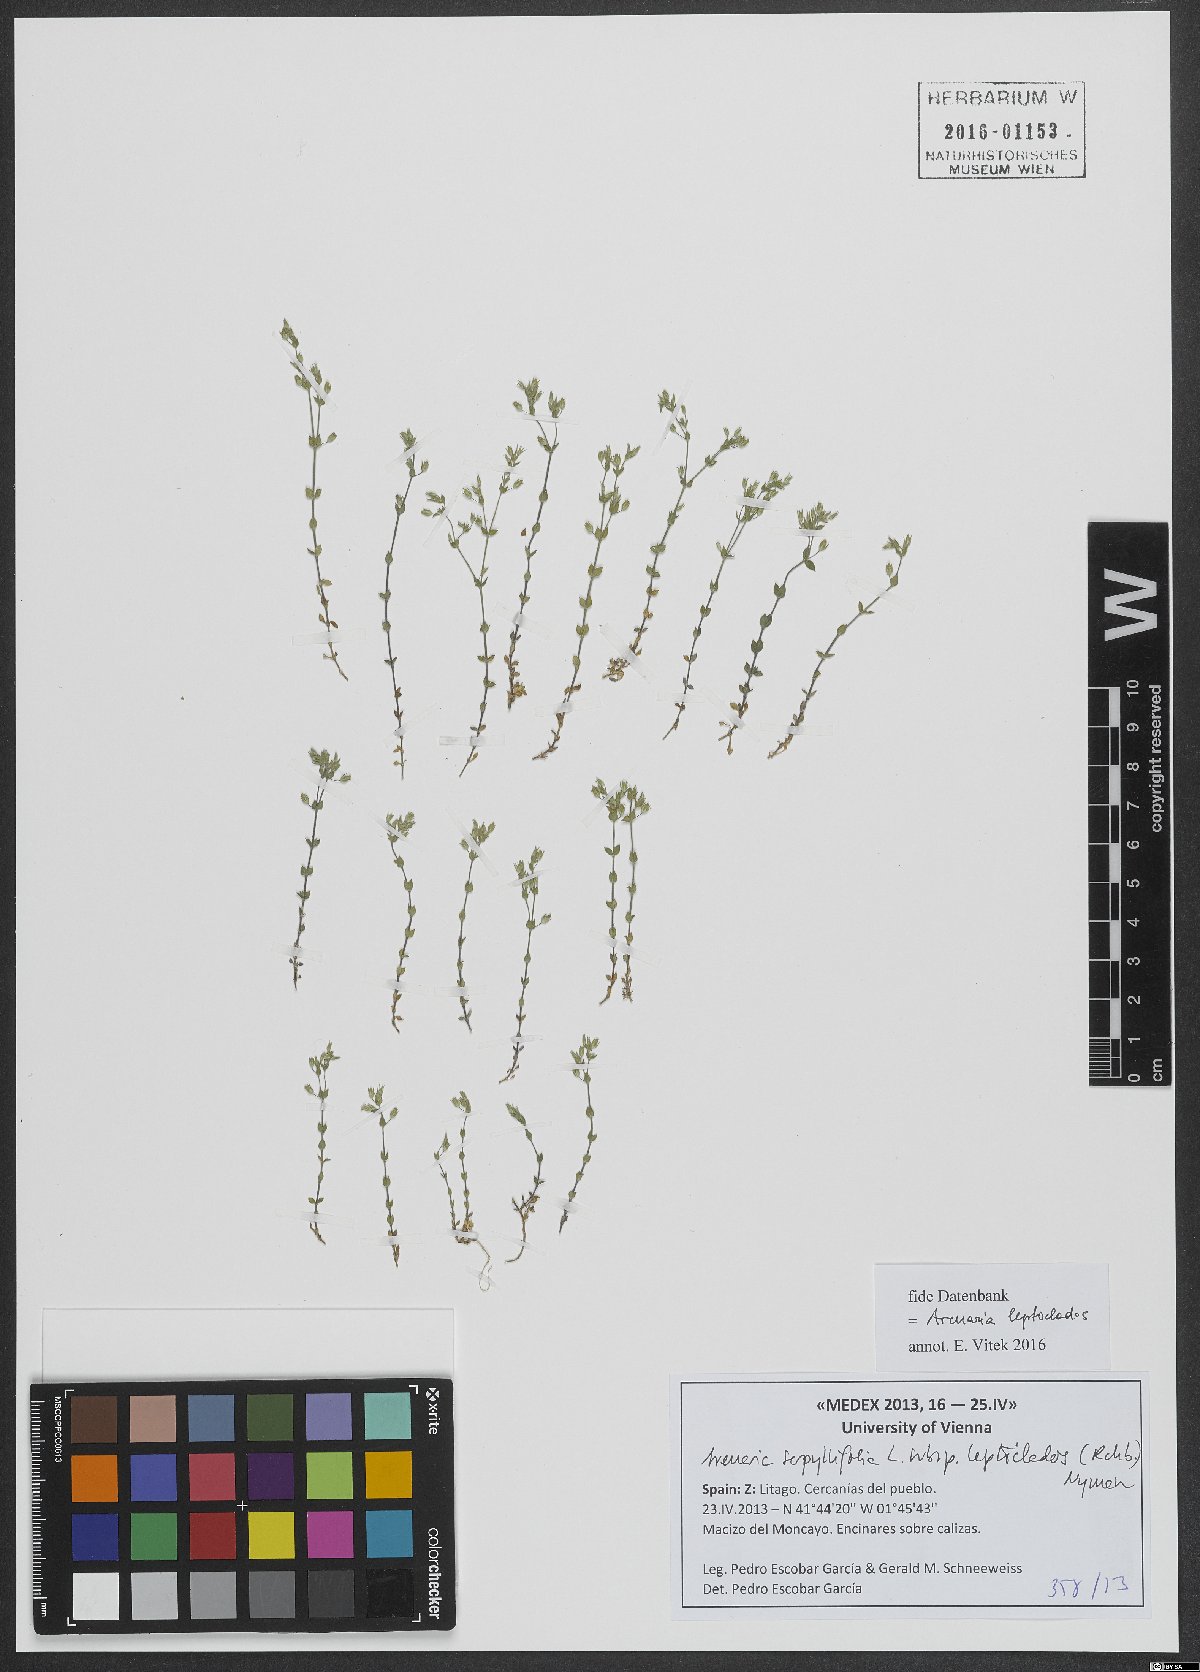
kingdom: Plantae
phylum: Tracheophyta
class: Magnoliopsida
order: Caryophyllales
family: Caryophyllaceae
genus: Arenaria
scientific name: Arenaria leptoclados
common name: Thyme-leaved sandwort
